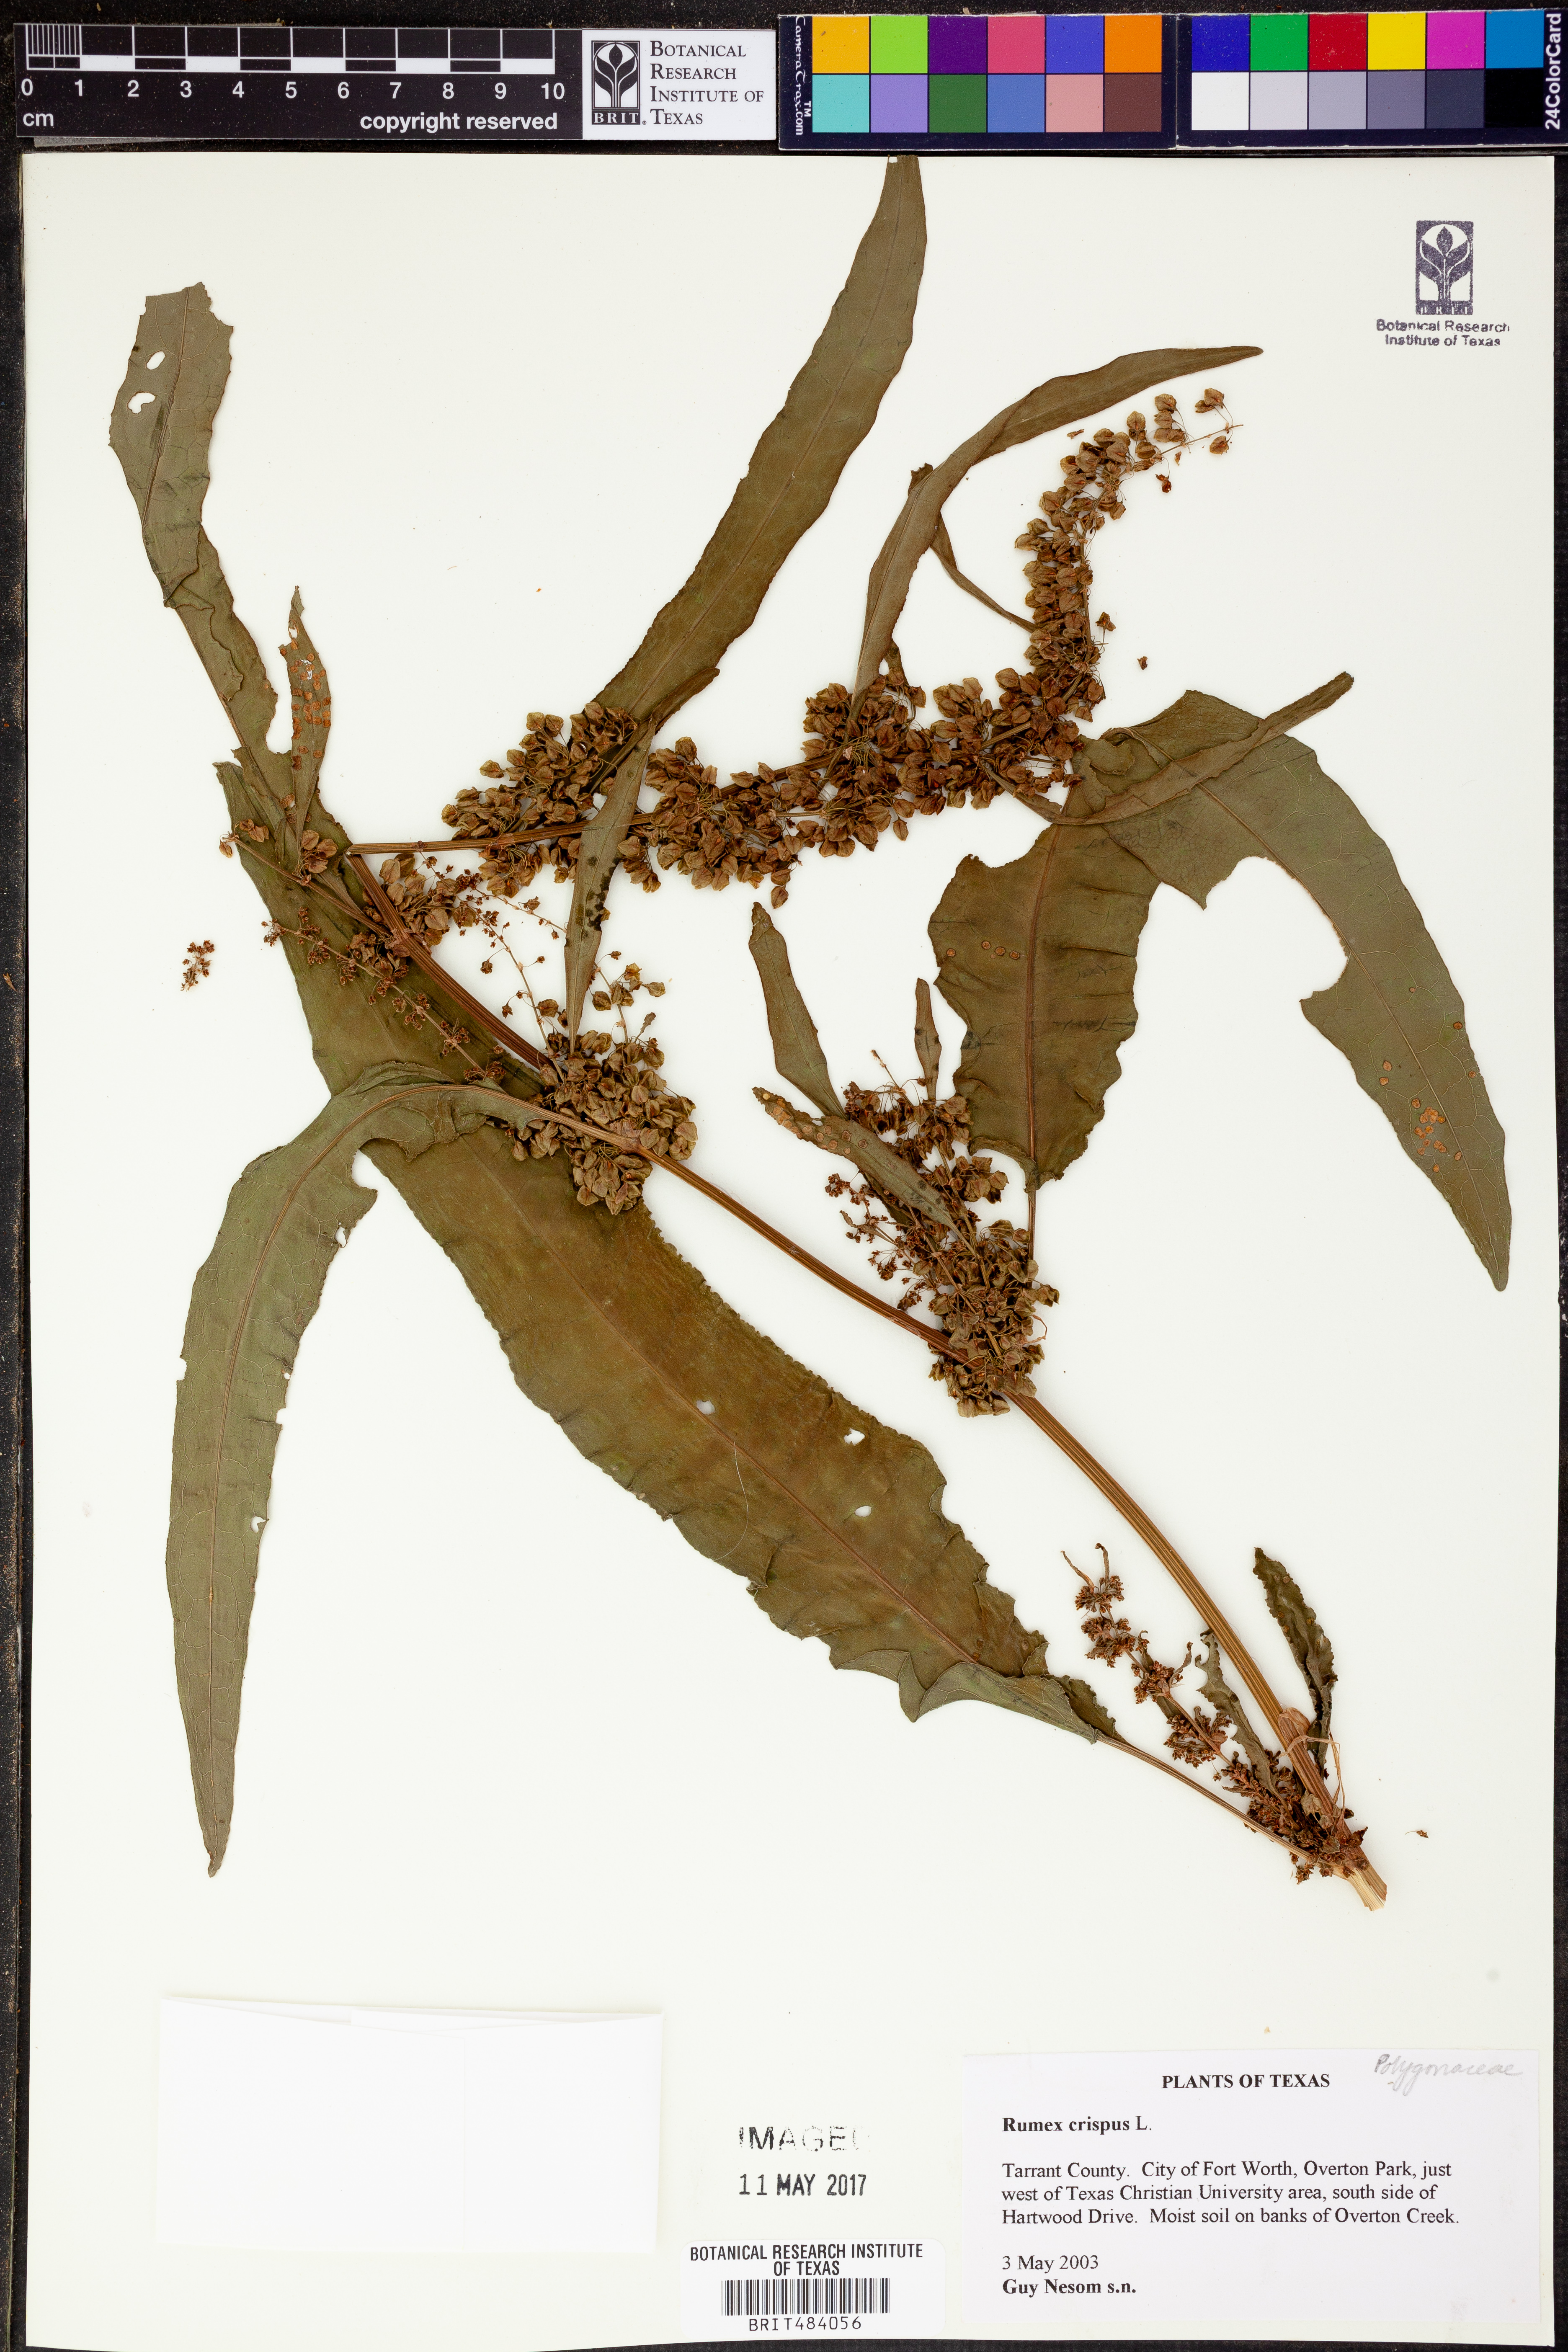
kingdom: Plantae
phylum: Tracheophyta
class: Magnoliopsida
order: Caryophyllales
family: Polygonaceae
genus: Rumex
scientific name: Rumex crispus
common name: Curled dock
